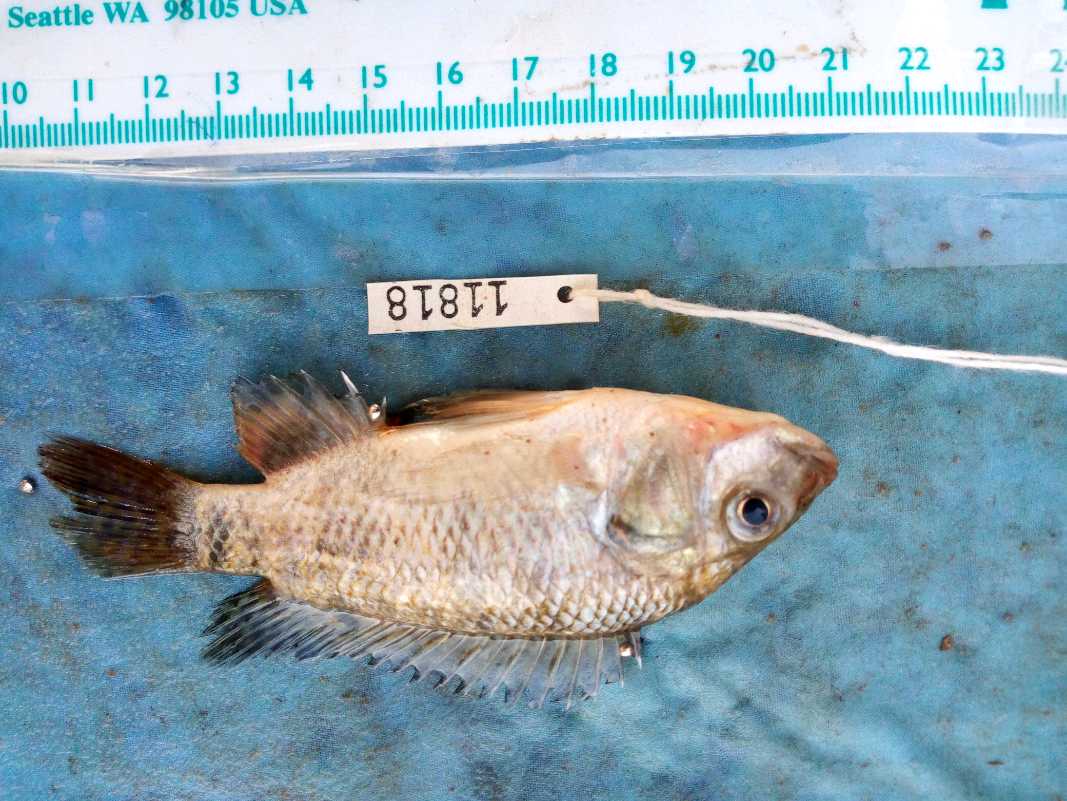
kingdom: Animalia
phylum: Chordata
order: Perciformes
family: Cichlidae
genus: Oreochromis
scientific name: Oreochromis spilurus
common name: Sabaki tilapia
